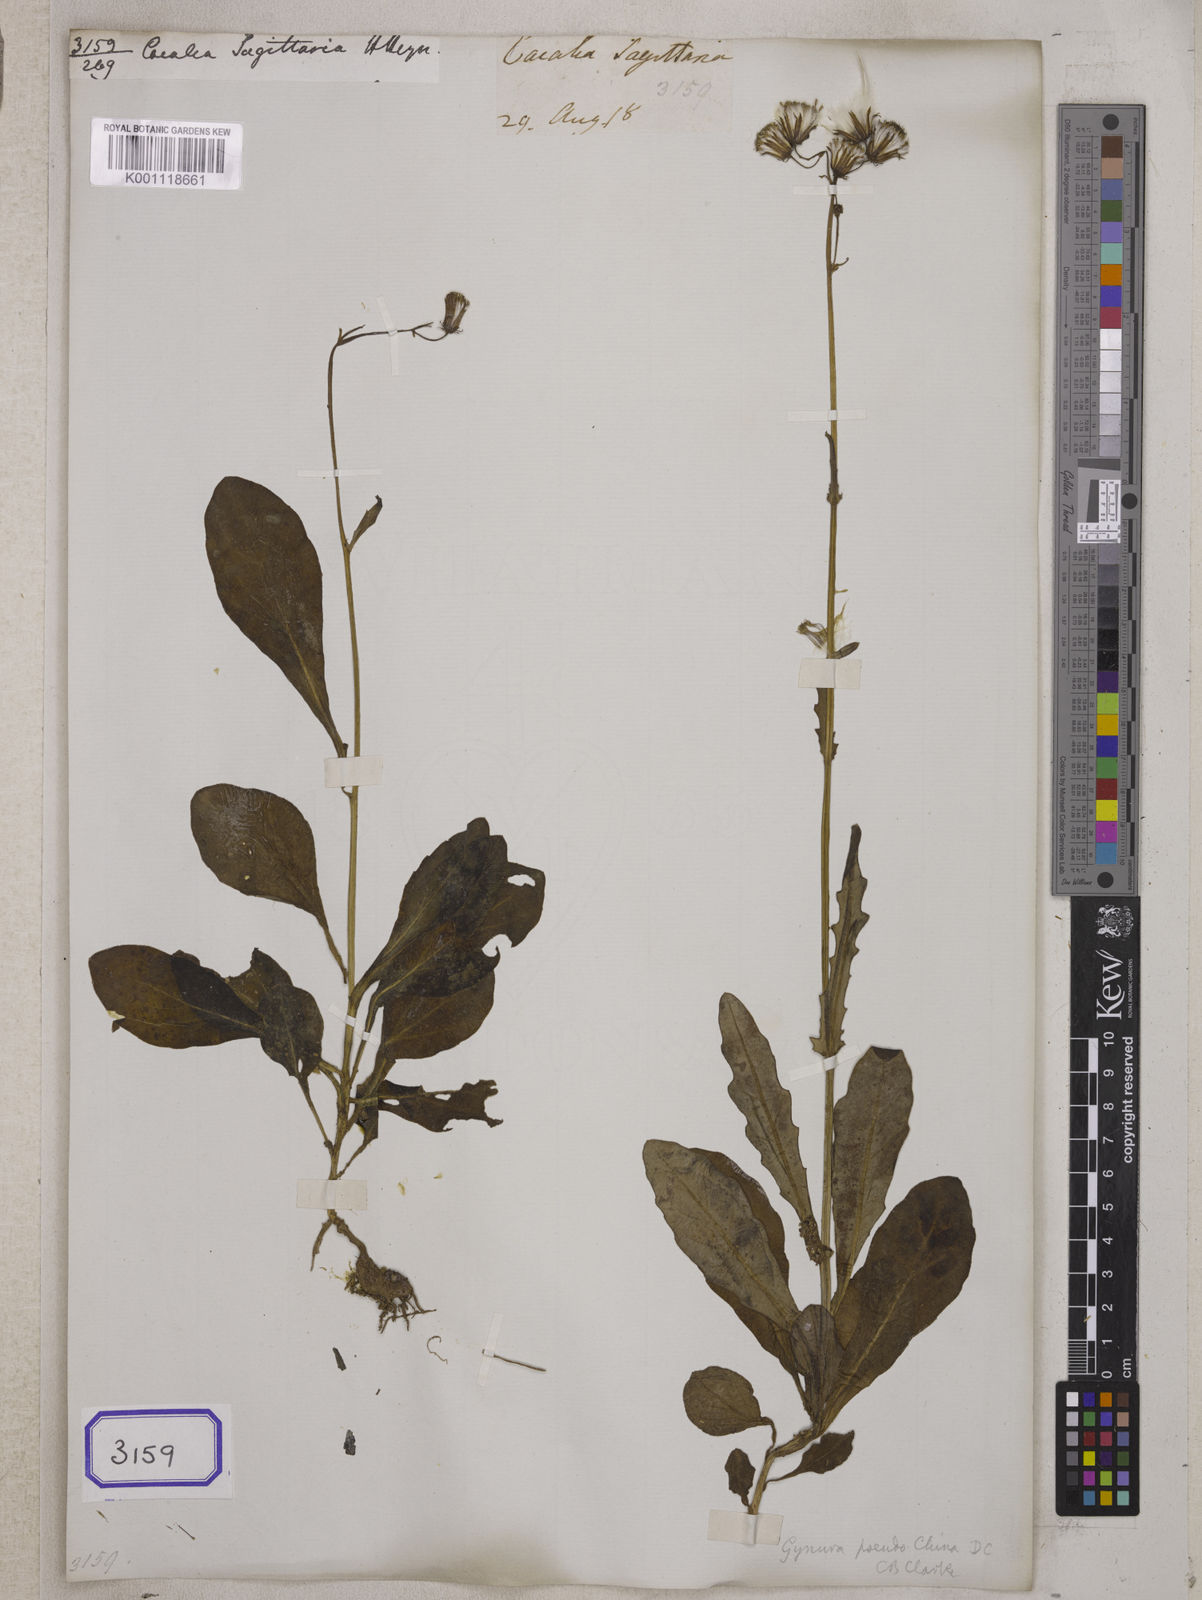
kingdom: Plantae
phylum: Tracheophyta
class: Magnoliopsida
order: Asterales
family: Asteraceae
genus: Gynura
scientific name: Gynura pseudochina
